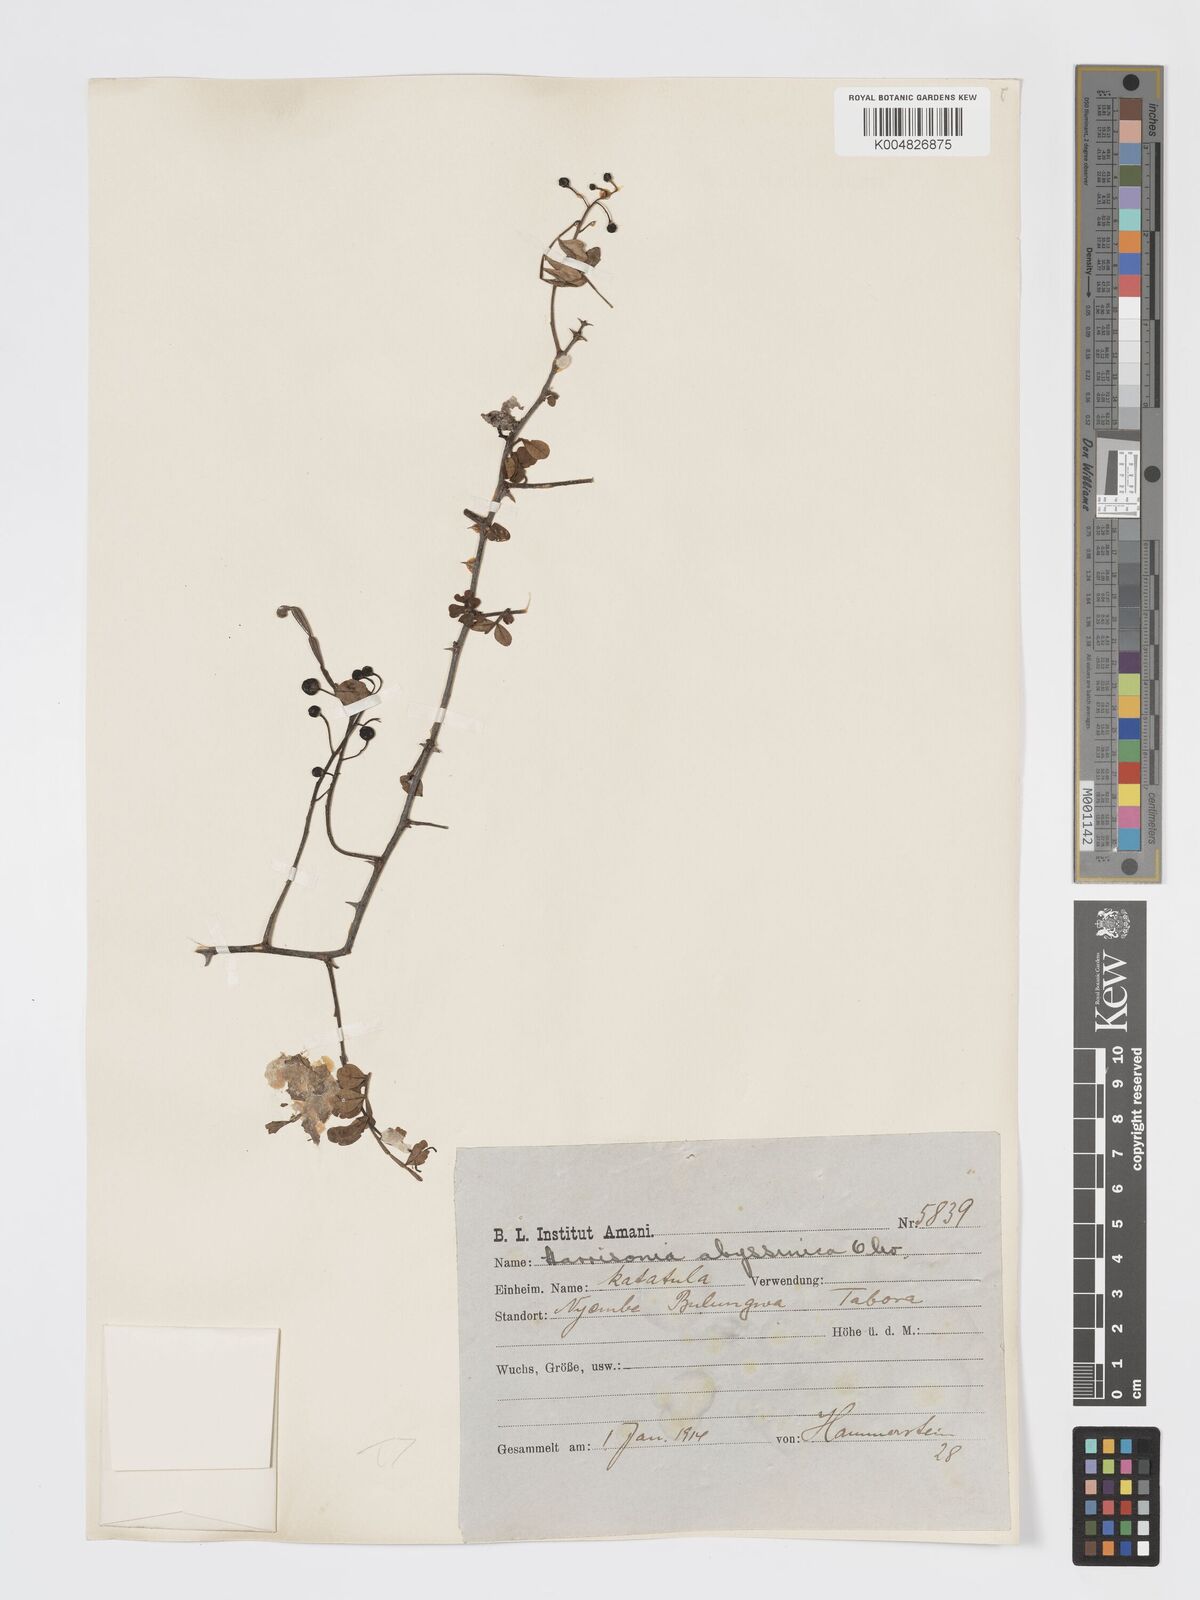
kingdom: Plantae
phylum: Tracheophyta
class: Magnoliopsida
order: Sapindales
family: Rutaceae
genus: Harrisonia
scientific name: Harrisonia abyssinica
